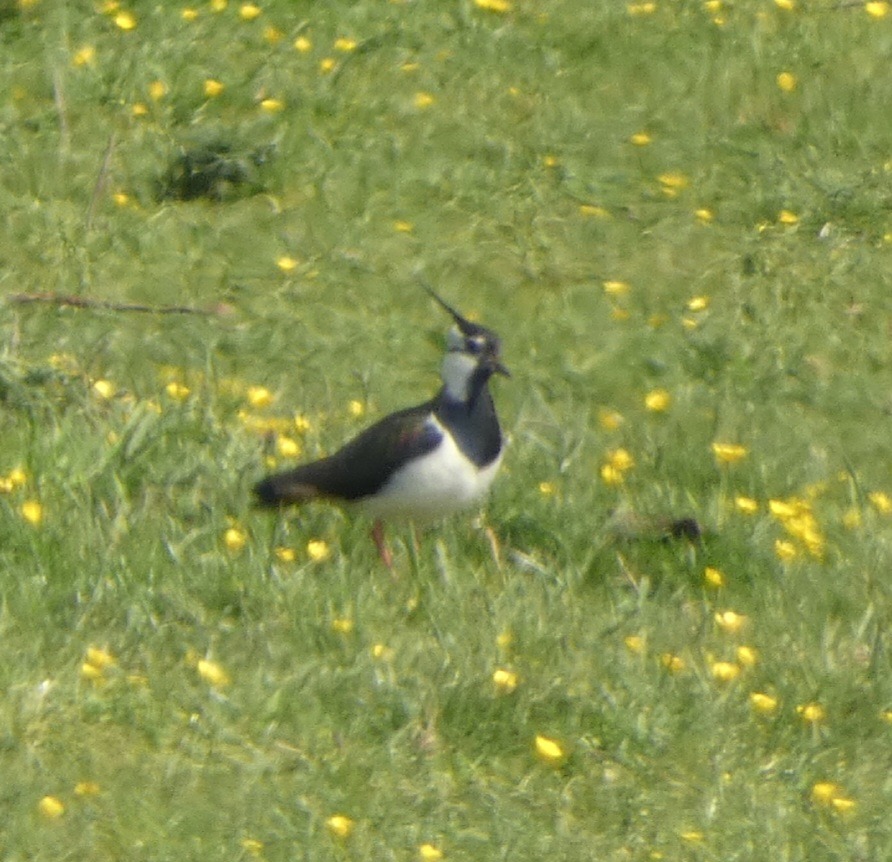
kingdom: Animalia
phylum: Chordata
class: Aves
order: Charadriiformes
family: Charadriidae
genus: Vanellus
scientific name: Vanellus vanellus
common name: Vibe
